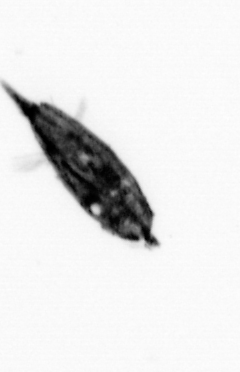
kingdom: Animalia
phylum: Arthropoda
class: Maxillopoda
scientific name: Maxillopoda
